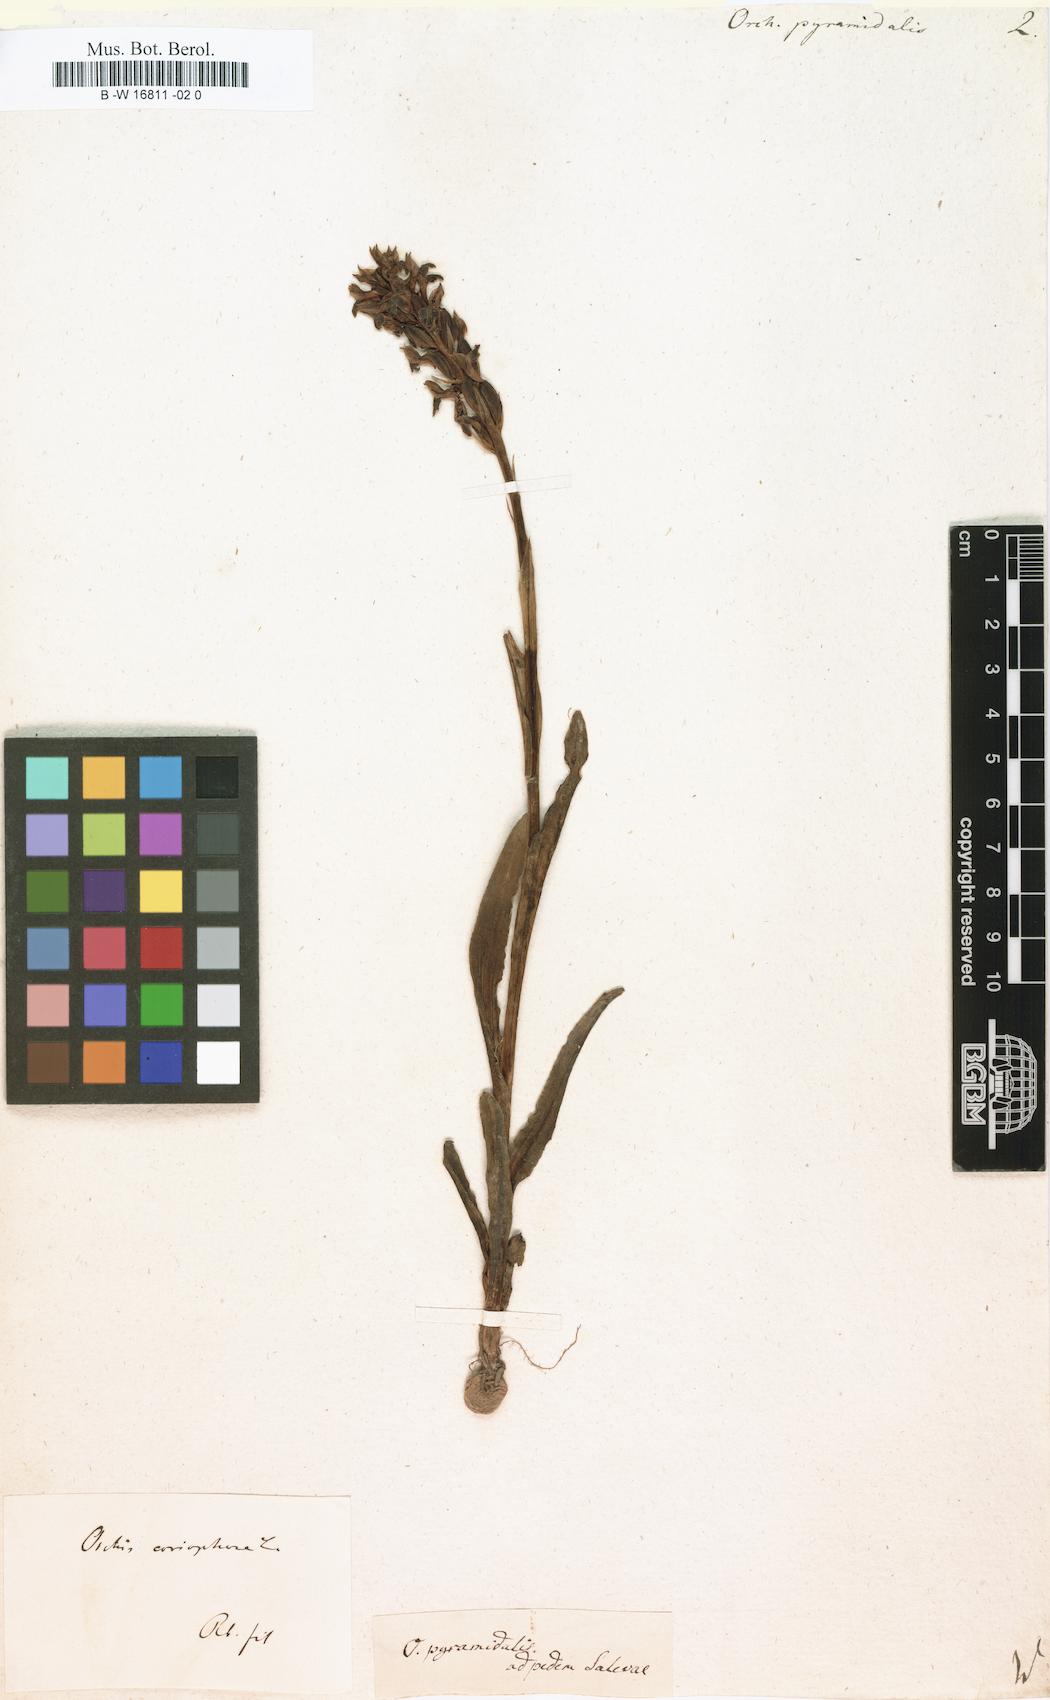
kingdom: Plantae
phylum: Tracheophyta
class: Liliopsida
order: Asparagales
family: Orchidaceae
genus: Anacamptis
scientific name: Anacamptis pyramidalis
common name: Pyramidal orchid
